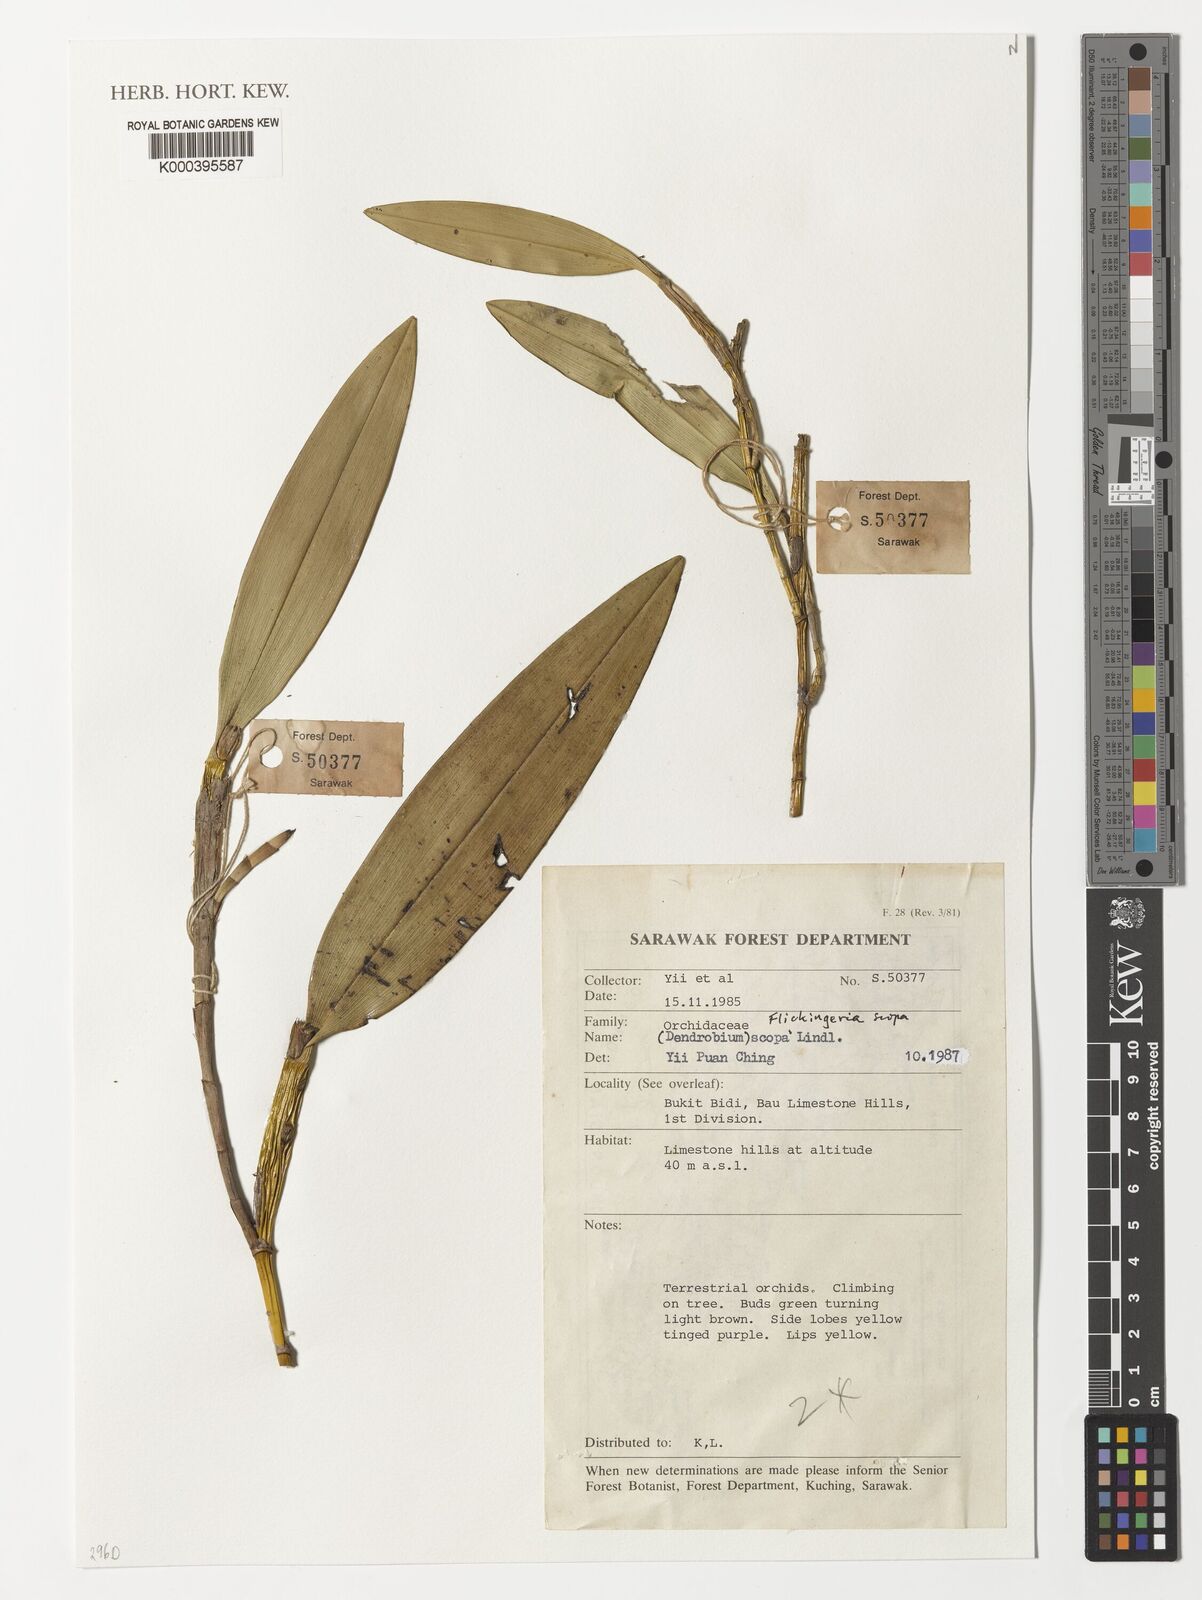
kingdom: Plantae
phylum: Tracheophyta
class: Liliopsida
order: Asparagales
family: Orchidaceae
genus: Dendrobium
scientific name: Dendrobium scopa
